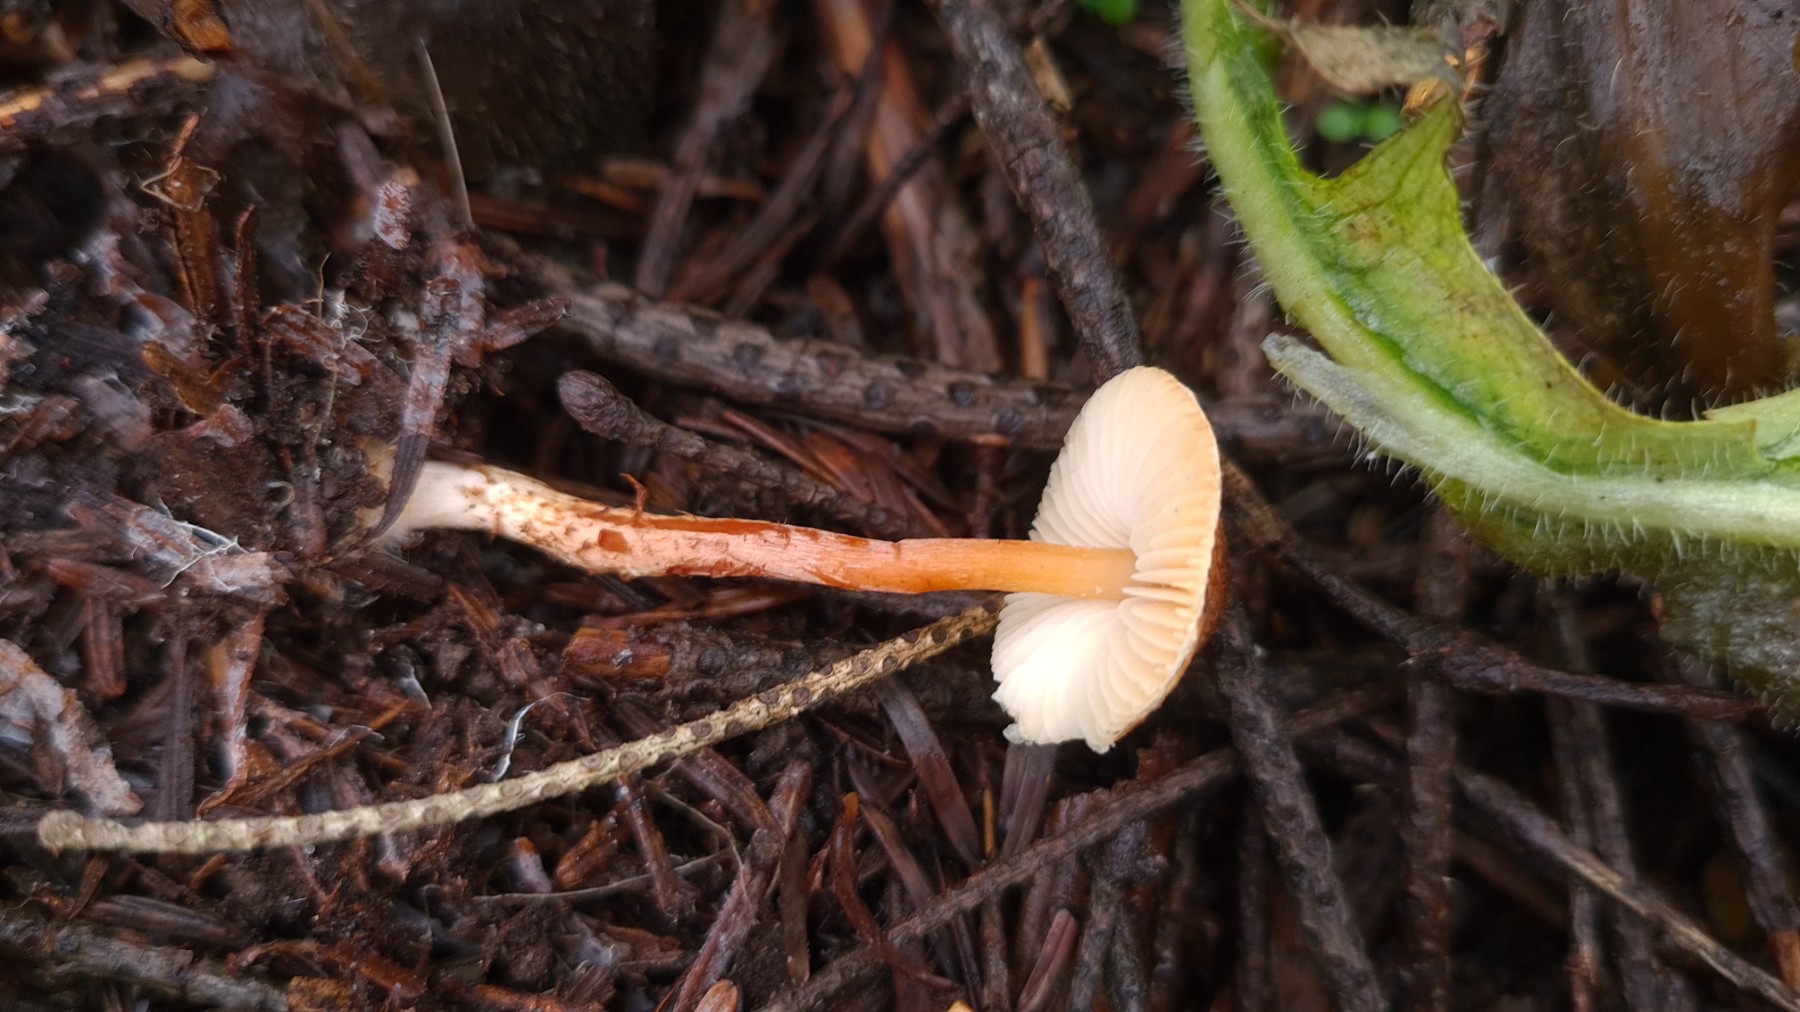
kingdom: Fungi
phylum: Basidiomycota
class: Agaricomycetes
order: Agaricales
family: Agaricaceae
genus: Lepiota
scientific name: Lepiota castanea
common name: kastaniebrun parasolhat
